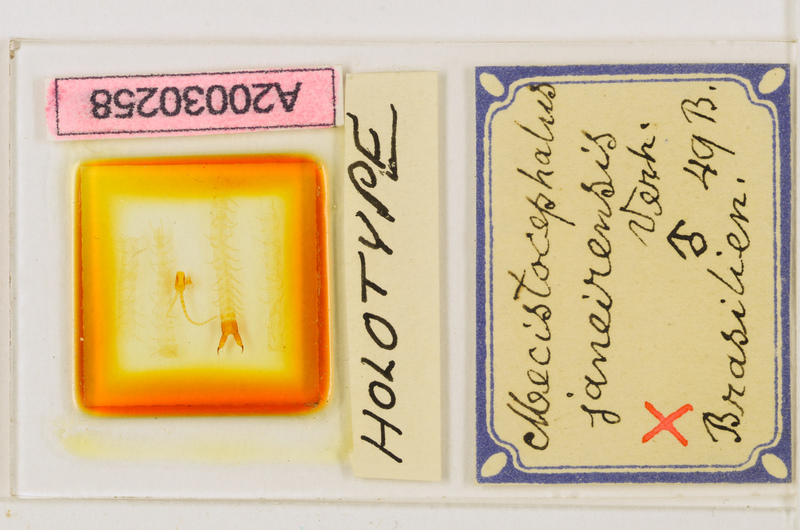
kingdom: Animalia
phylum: Arthropoda
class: Chilopoda
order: Geophilomorpha
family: Mecistocephalidae
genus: Mecistocephalus
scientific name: Mecistocephalus guildingii
